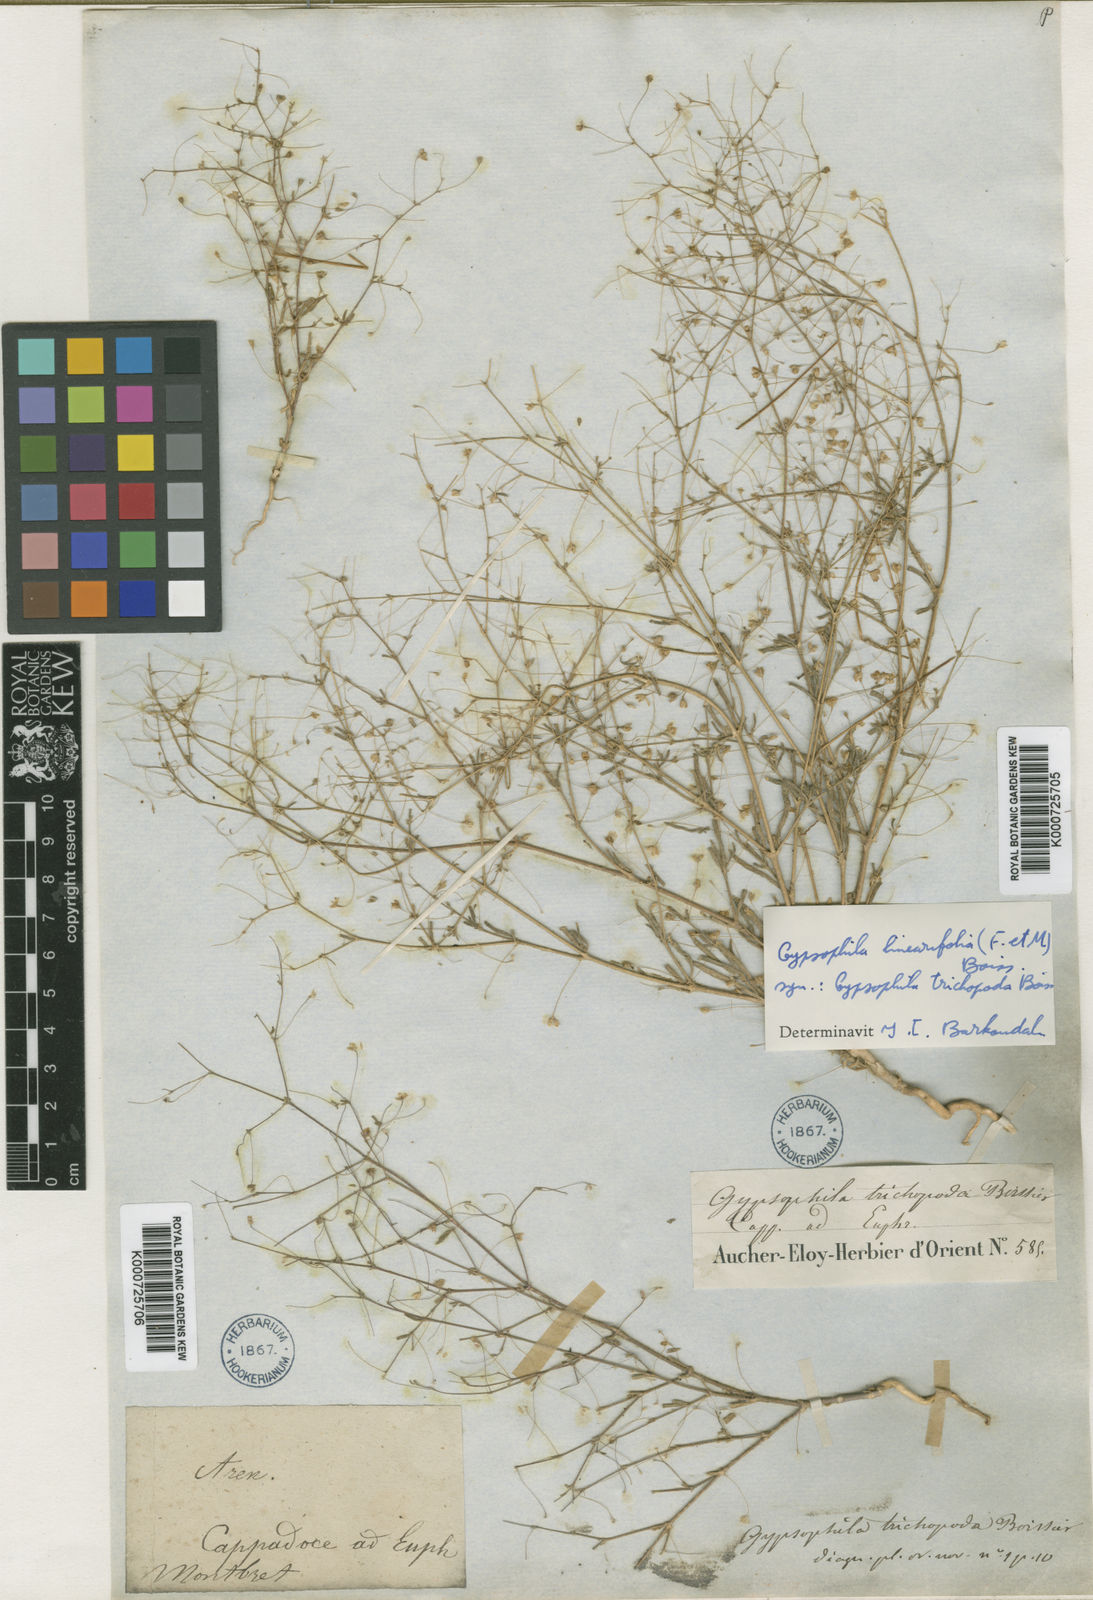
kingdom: Plantae
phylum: Tracheophyta
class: Magnoliopsida
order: Caryophyllales
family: Caryophyllaceae
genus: Gypsophila
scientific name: Gypsophila linearifolia
